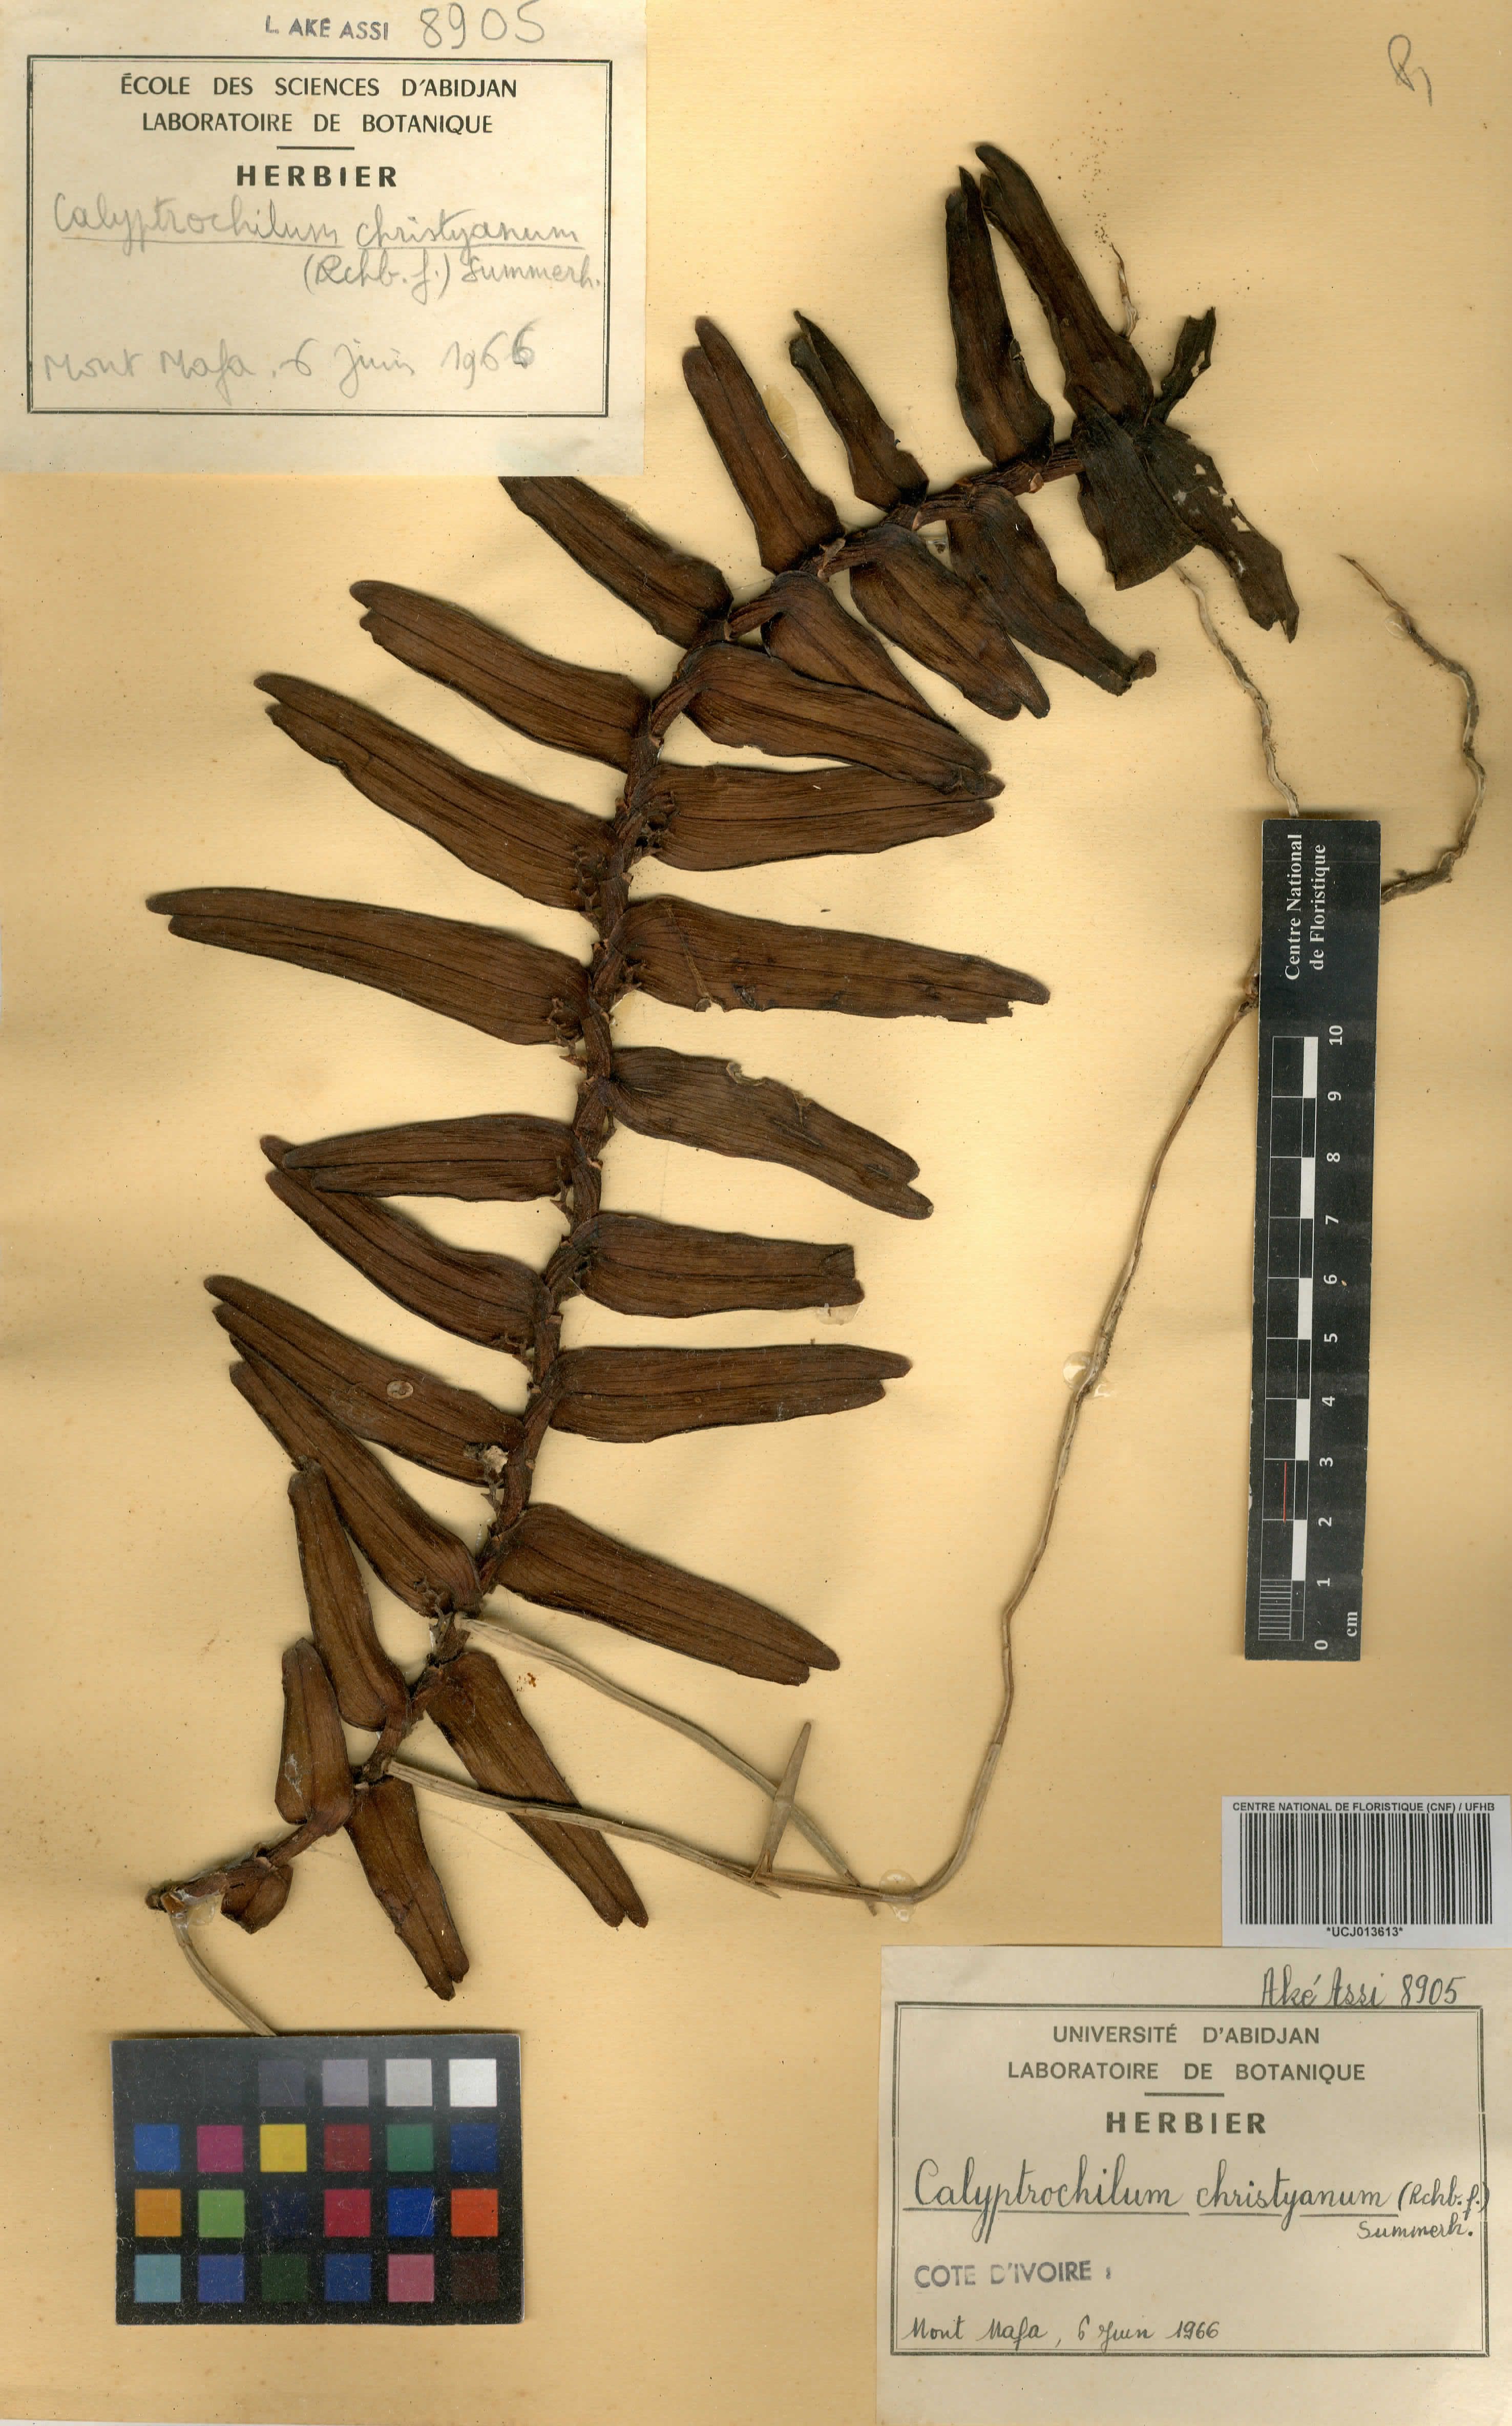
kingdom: Plantae
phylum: Tracheophyta
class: Liliopsida
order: Asparagales
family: Orchidaceae
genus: Calyptrochilum
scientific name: Calyptrochilum christyanum
